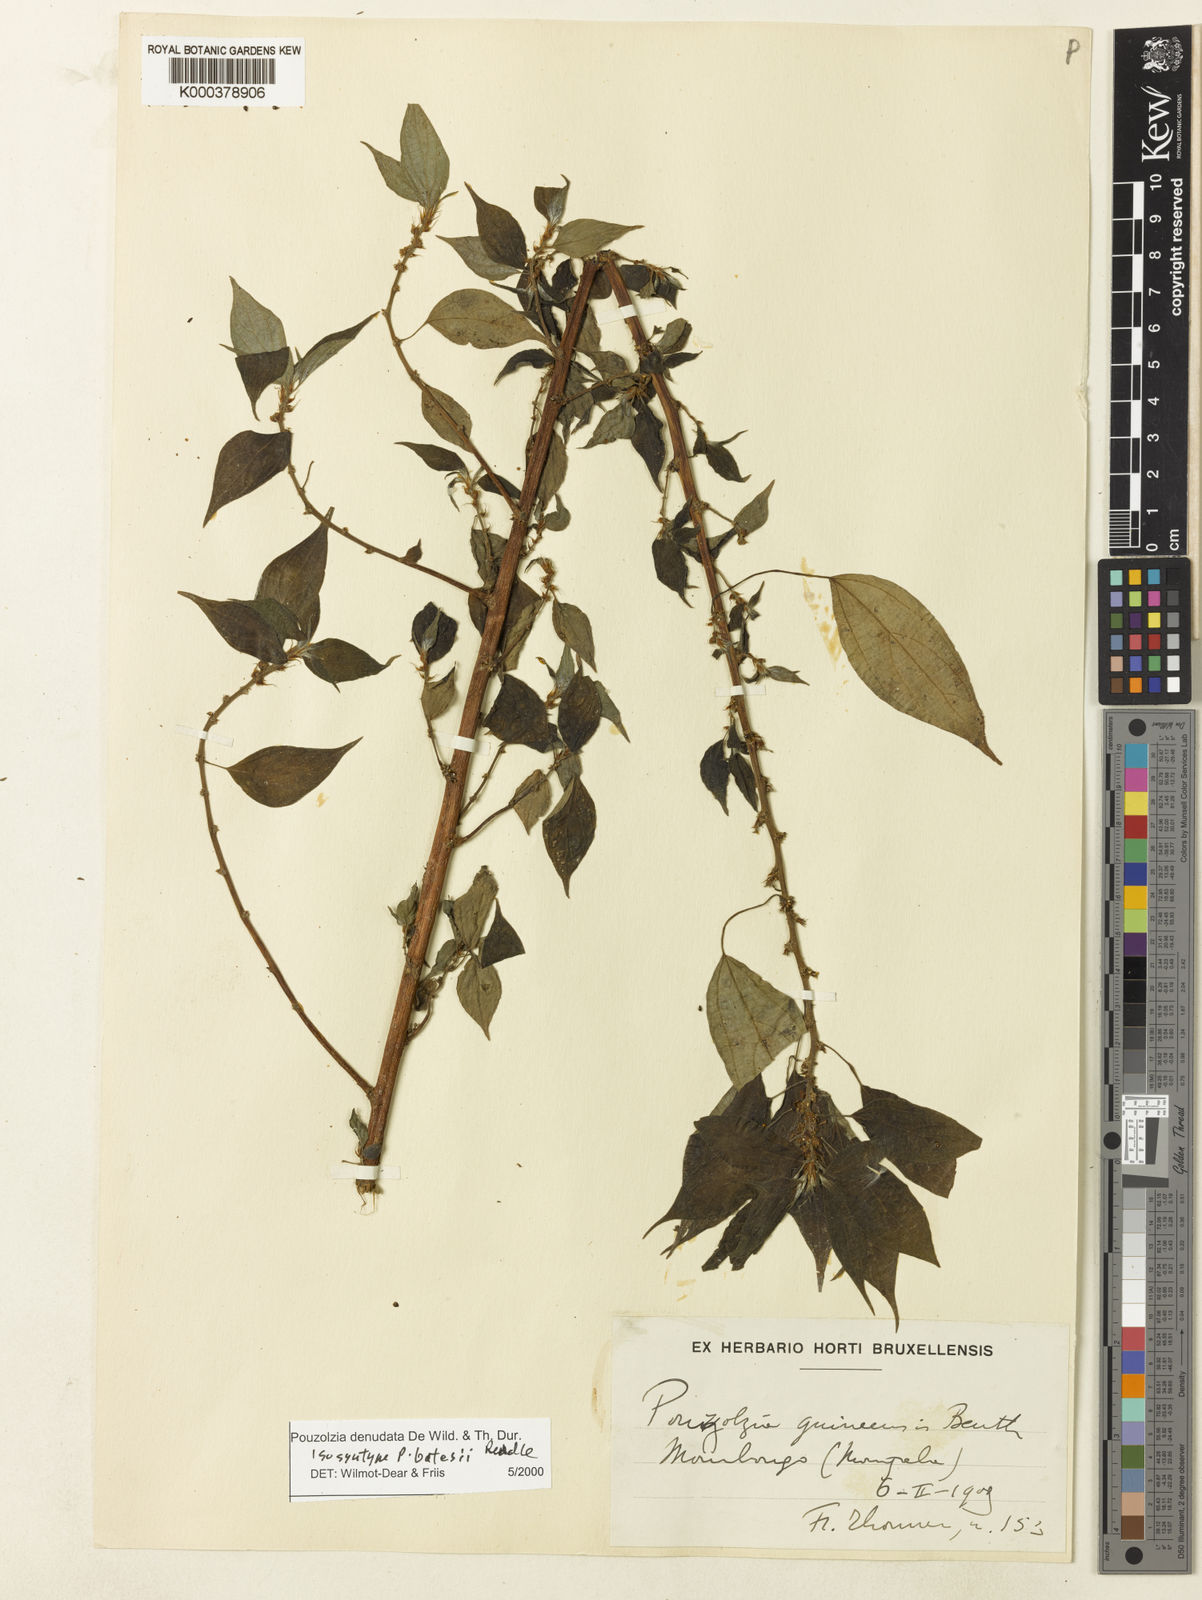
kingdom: Plantae
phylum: Tracheophyta
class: Magnoliopsida
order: Rosales
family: Urticaceae
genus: Pouzolzia
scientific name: Pouzolzia denudata
